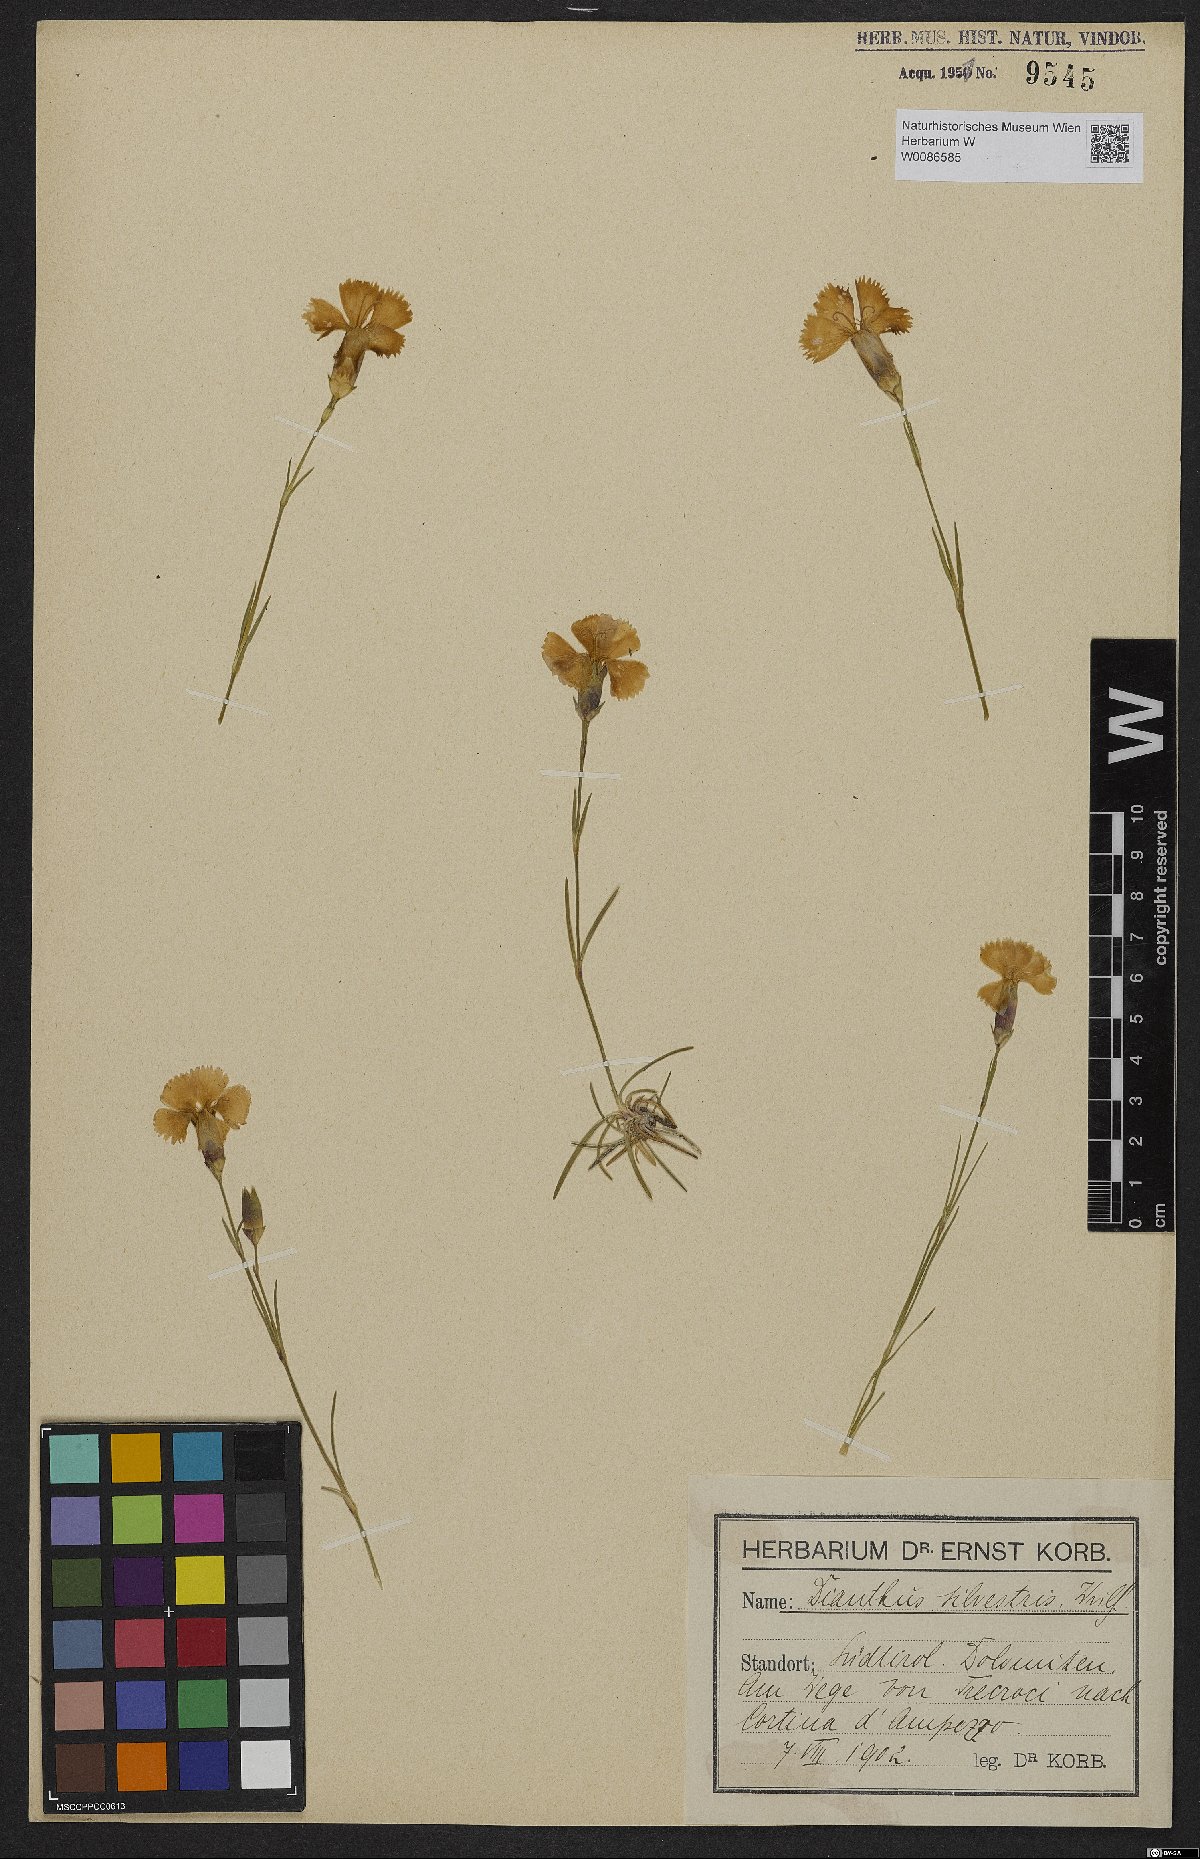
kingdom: Plantae
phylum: Tracheophyta
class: Magnoliopsida
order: Caryophyllales
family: Caryophyllaceae
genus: Dianthus
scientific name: Dianthus sylvestris
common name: Wood pink
